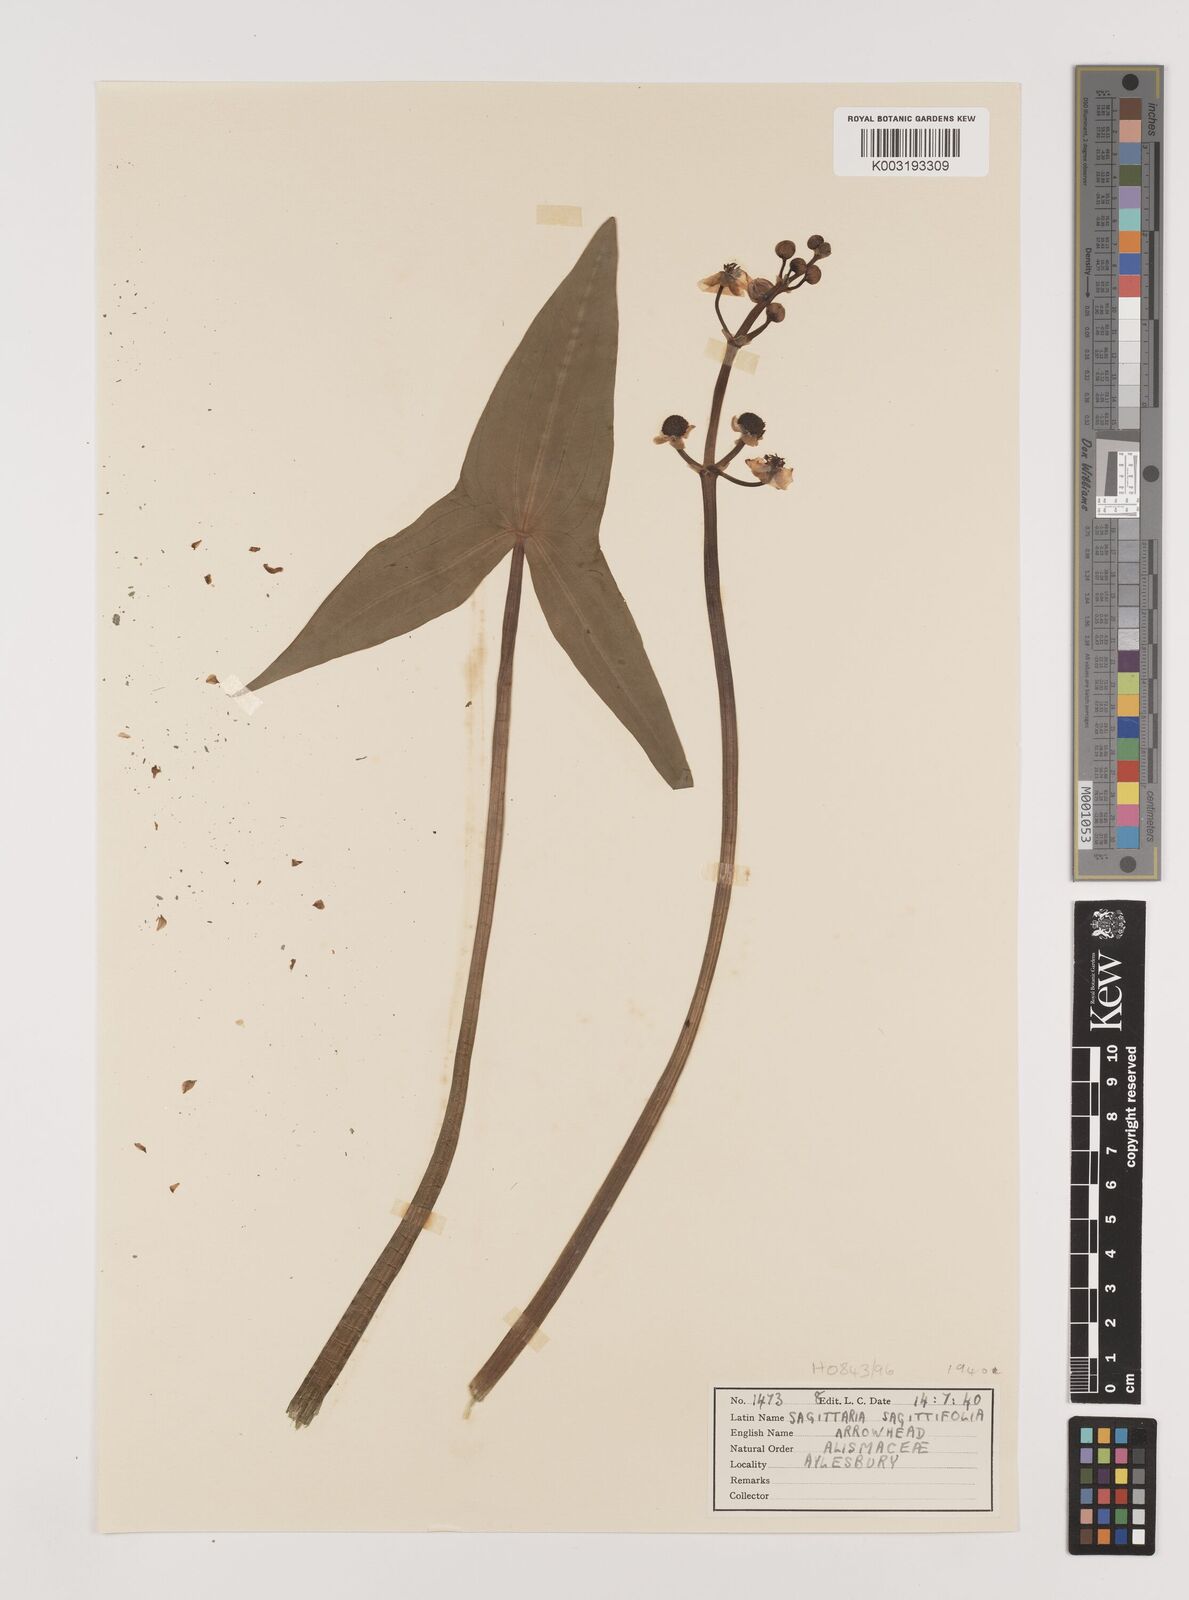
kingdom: Plantae
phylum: Tracheophyta
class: Liliopsida
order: Alismatales
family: Alismataceae
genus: Sagittaria
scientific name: Sagittaria sagittifolia
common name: Arrowhead
